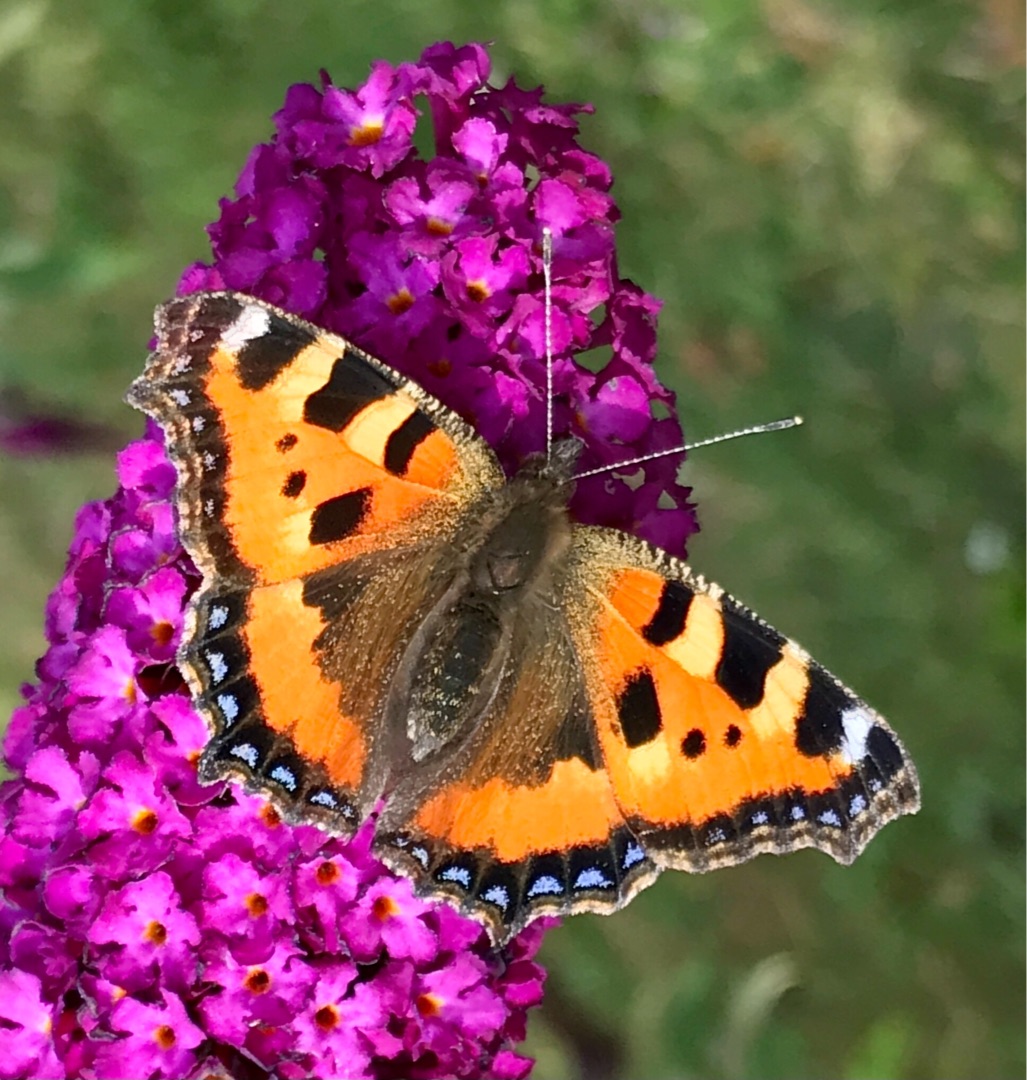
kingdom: Animalia
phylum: Arthropoda
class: Insecta
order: Lepidoptera
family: Nymphalidae
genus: Aglais
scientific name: Aglais urticae
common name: Nældens takvinge
